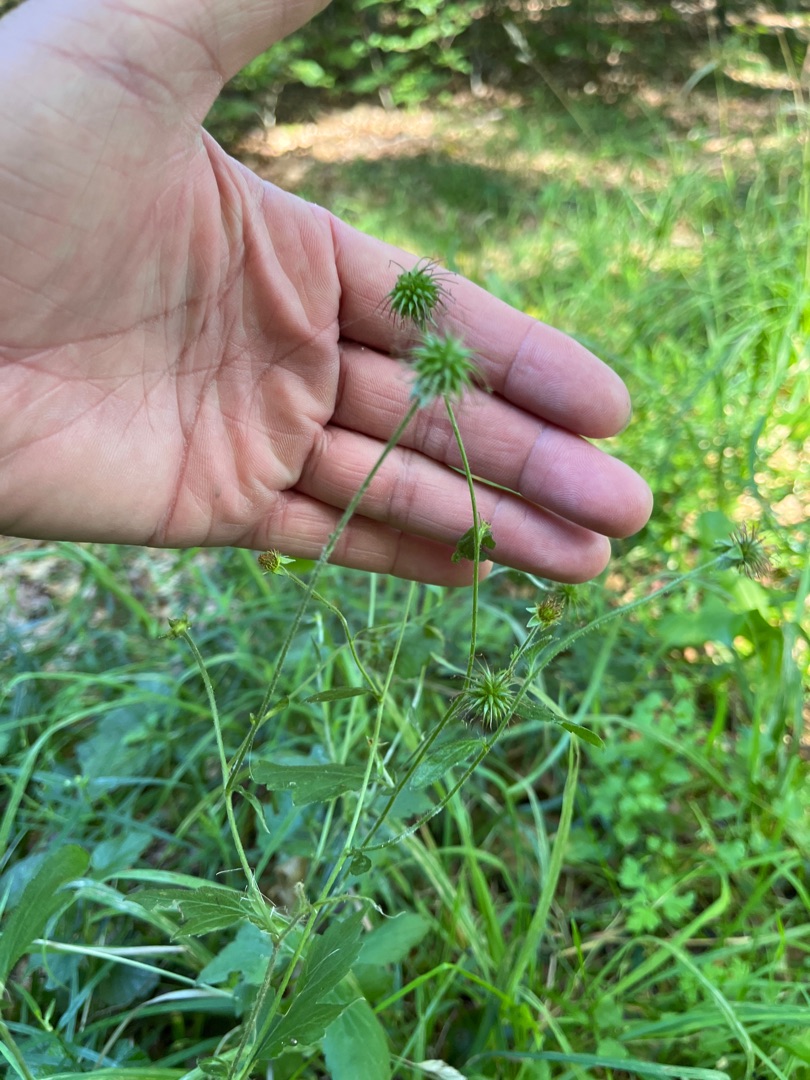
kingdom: Plantae
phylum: Tracheophyta
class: Magnoliopsida
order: Rosales
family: Rosaceae
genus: Geum
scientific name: Geum urbanum
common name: Feber-nellikerod
